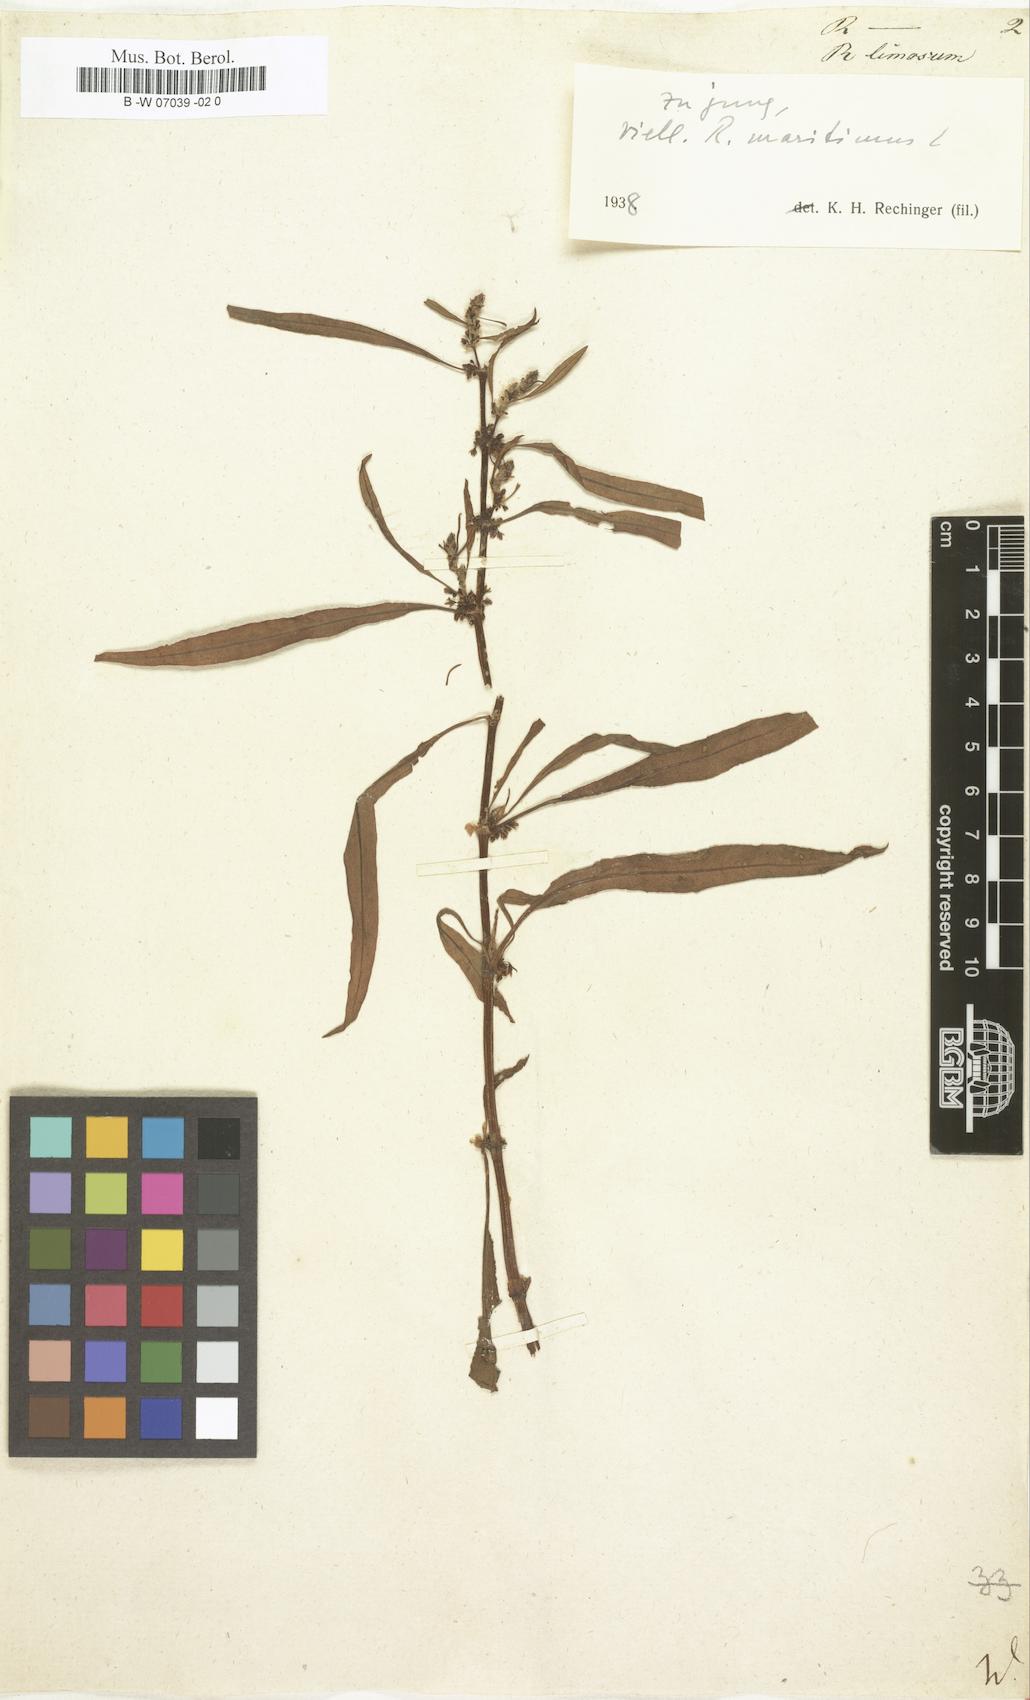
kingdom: Plantae
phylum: Tracheophyta
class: Magnoliopsida
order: Caryophyllales
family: Polygonaceae
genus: Rumex
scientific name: Rumex
